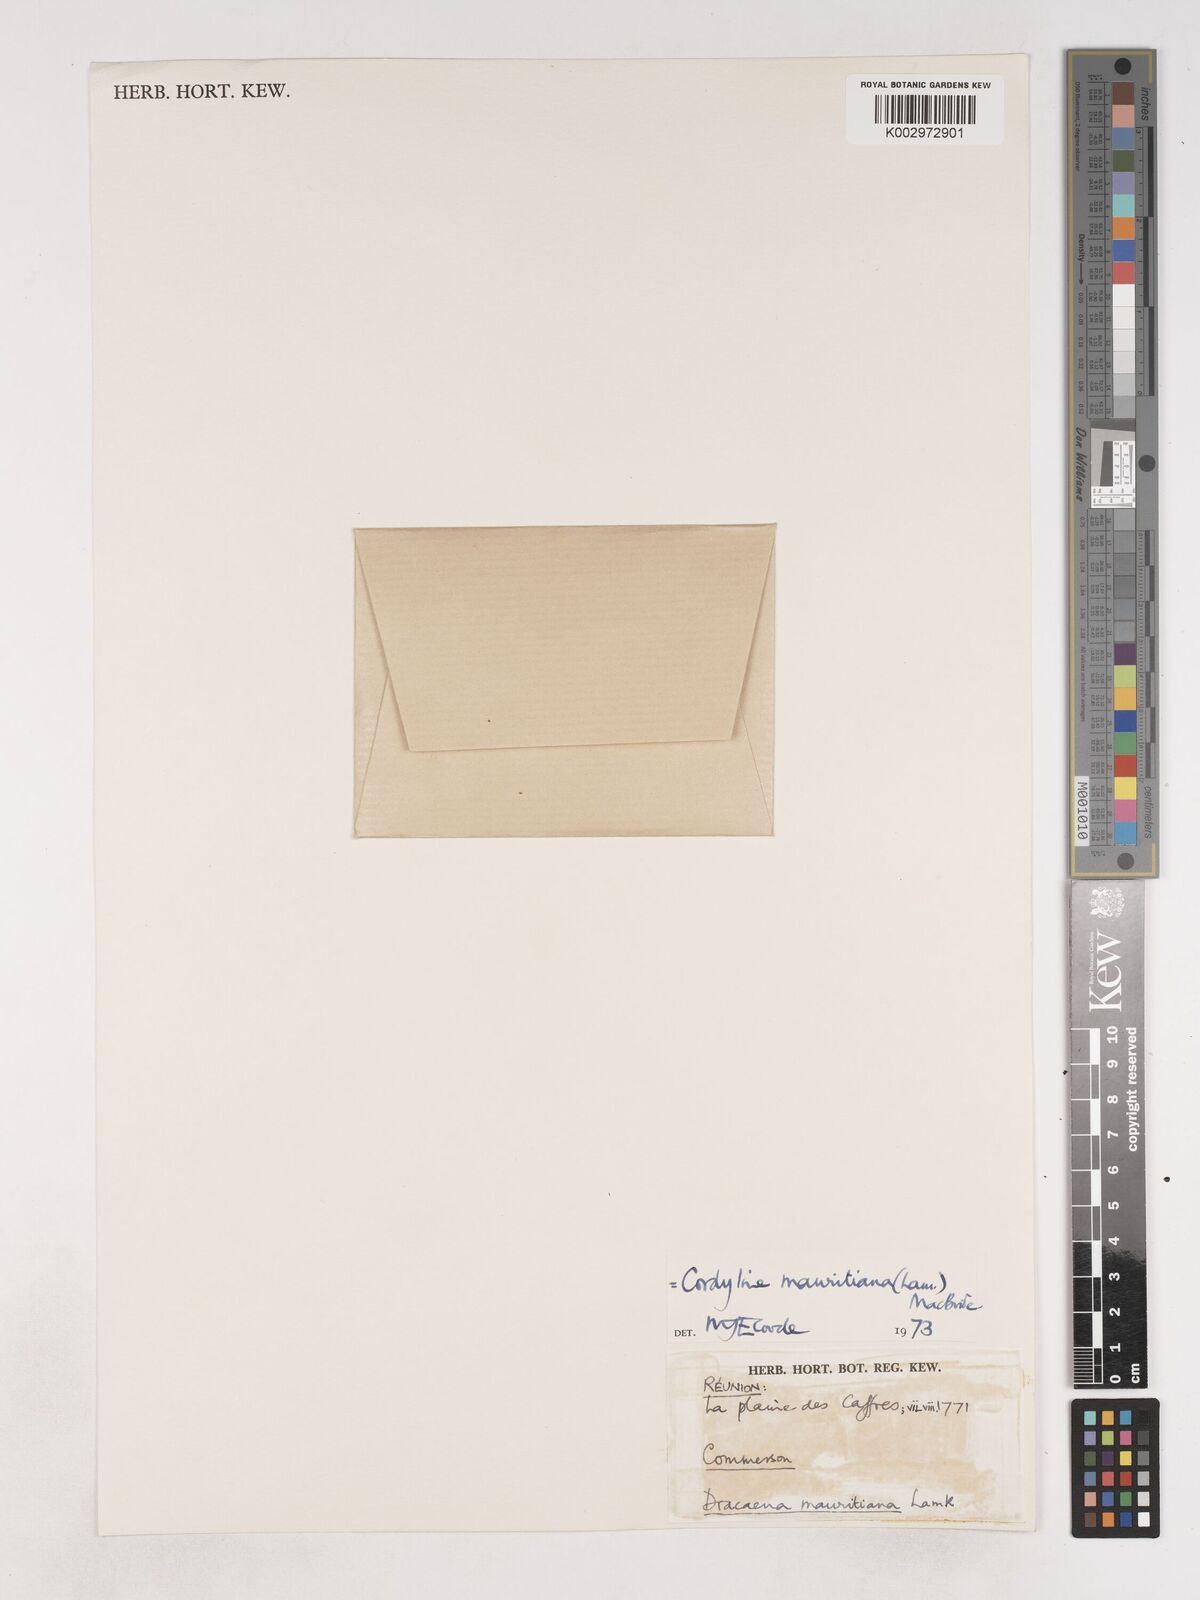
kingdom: Plantae
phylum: Tracheophyta
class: Liliopsida
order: Asparagales
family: Asparagaceae
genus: Cordyline
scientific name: Cordyline mauritiana
